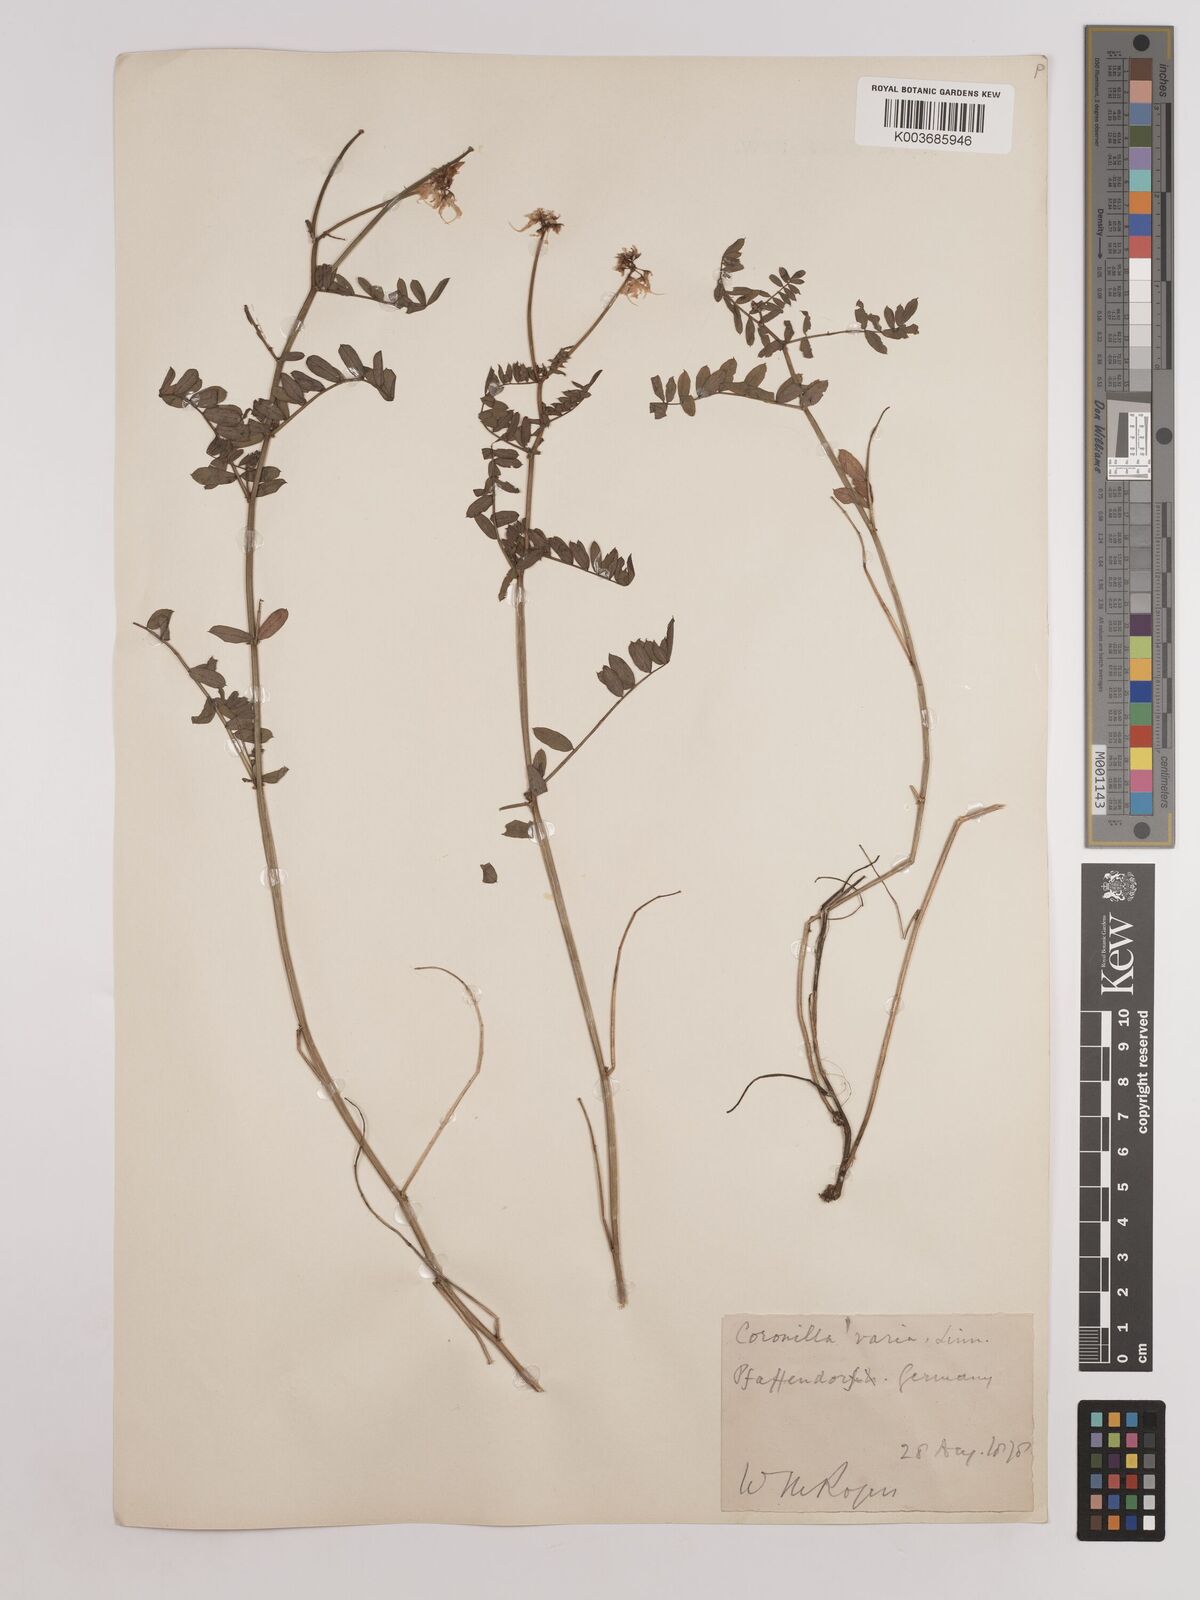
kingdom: Plantae
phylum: Tracheophyta
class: Magnoliopsida
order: Fabales
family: Fabaceae
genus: Coronilla
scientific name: Coronilla varia
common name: Crownvetch
